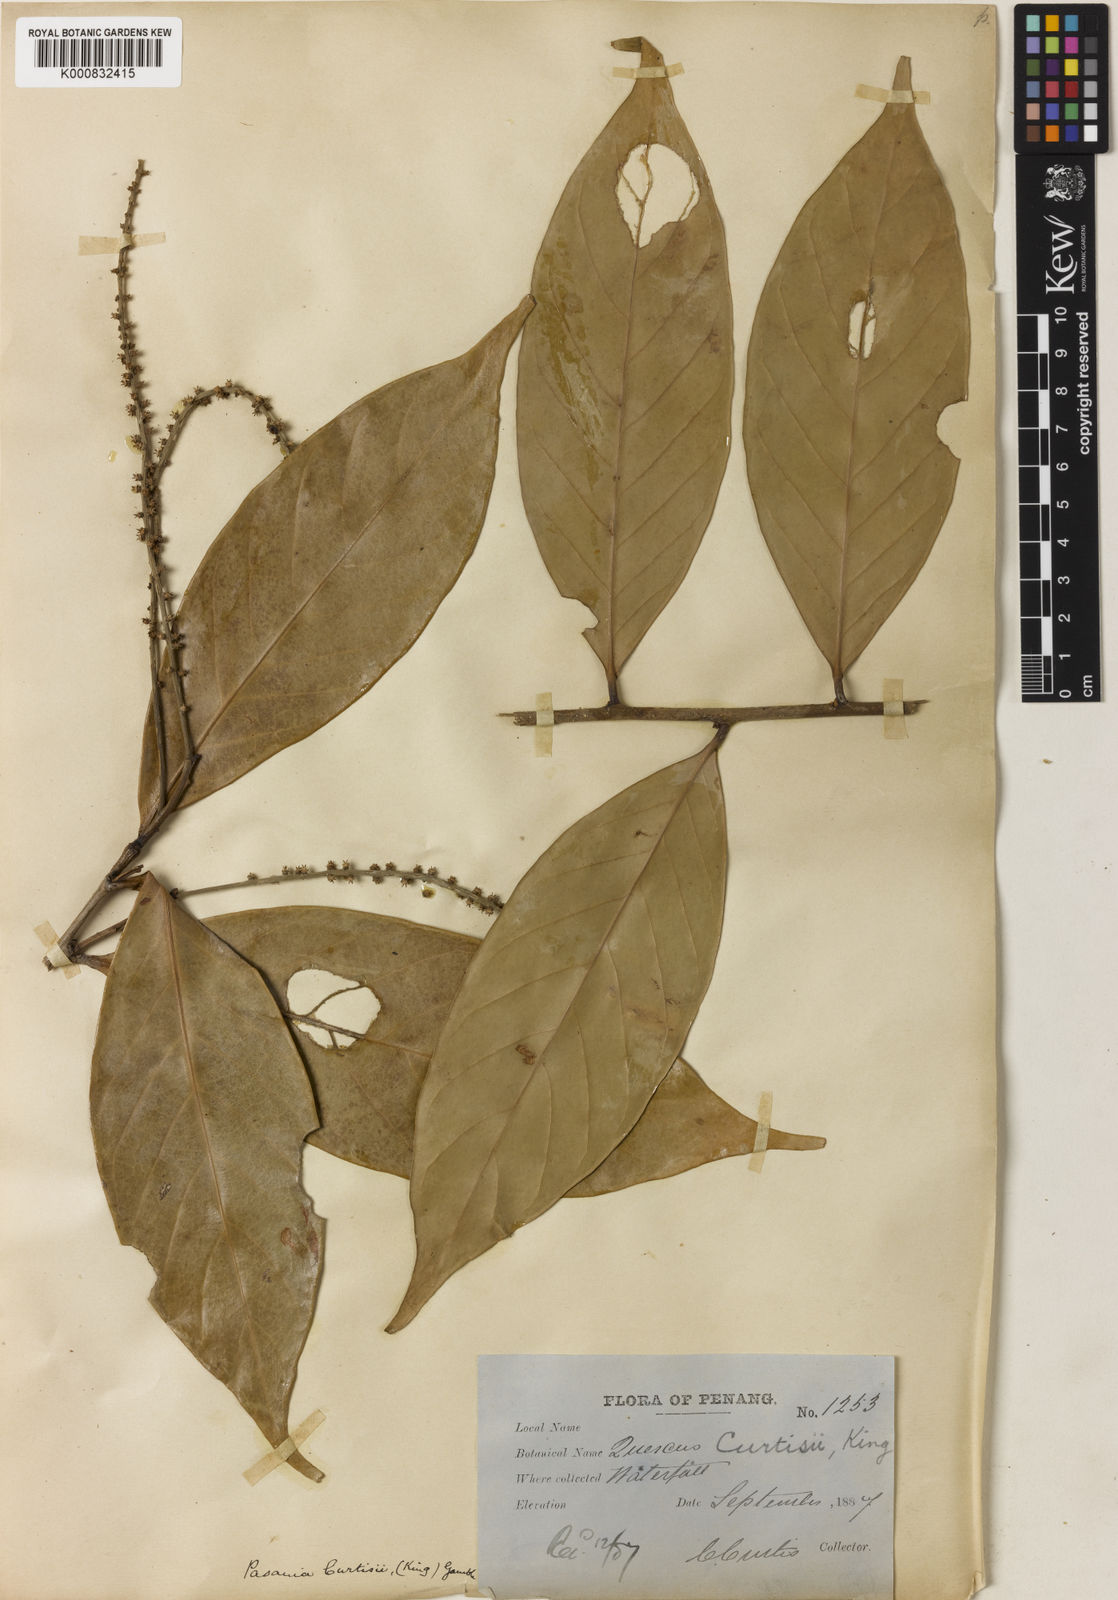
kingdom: Plantae
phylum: Tracheophyta
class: Magnoliopsida
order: Fagales
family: Fagaceae
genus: Lithocarpus
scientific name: Lithocarpus curtisii
